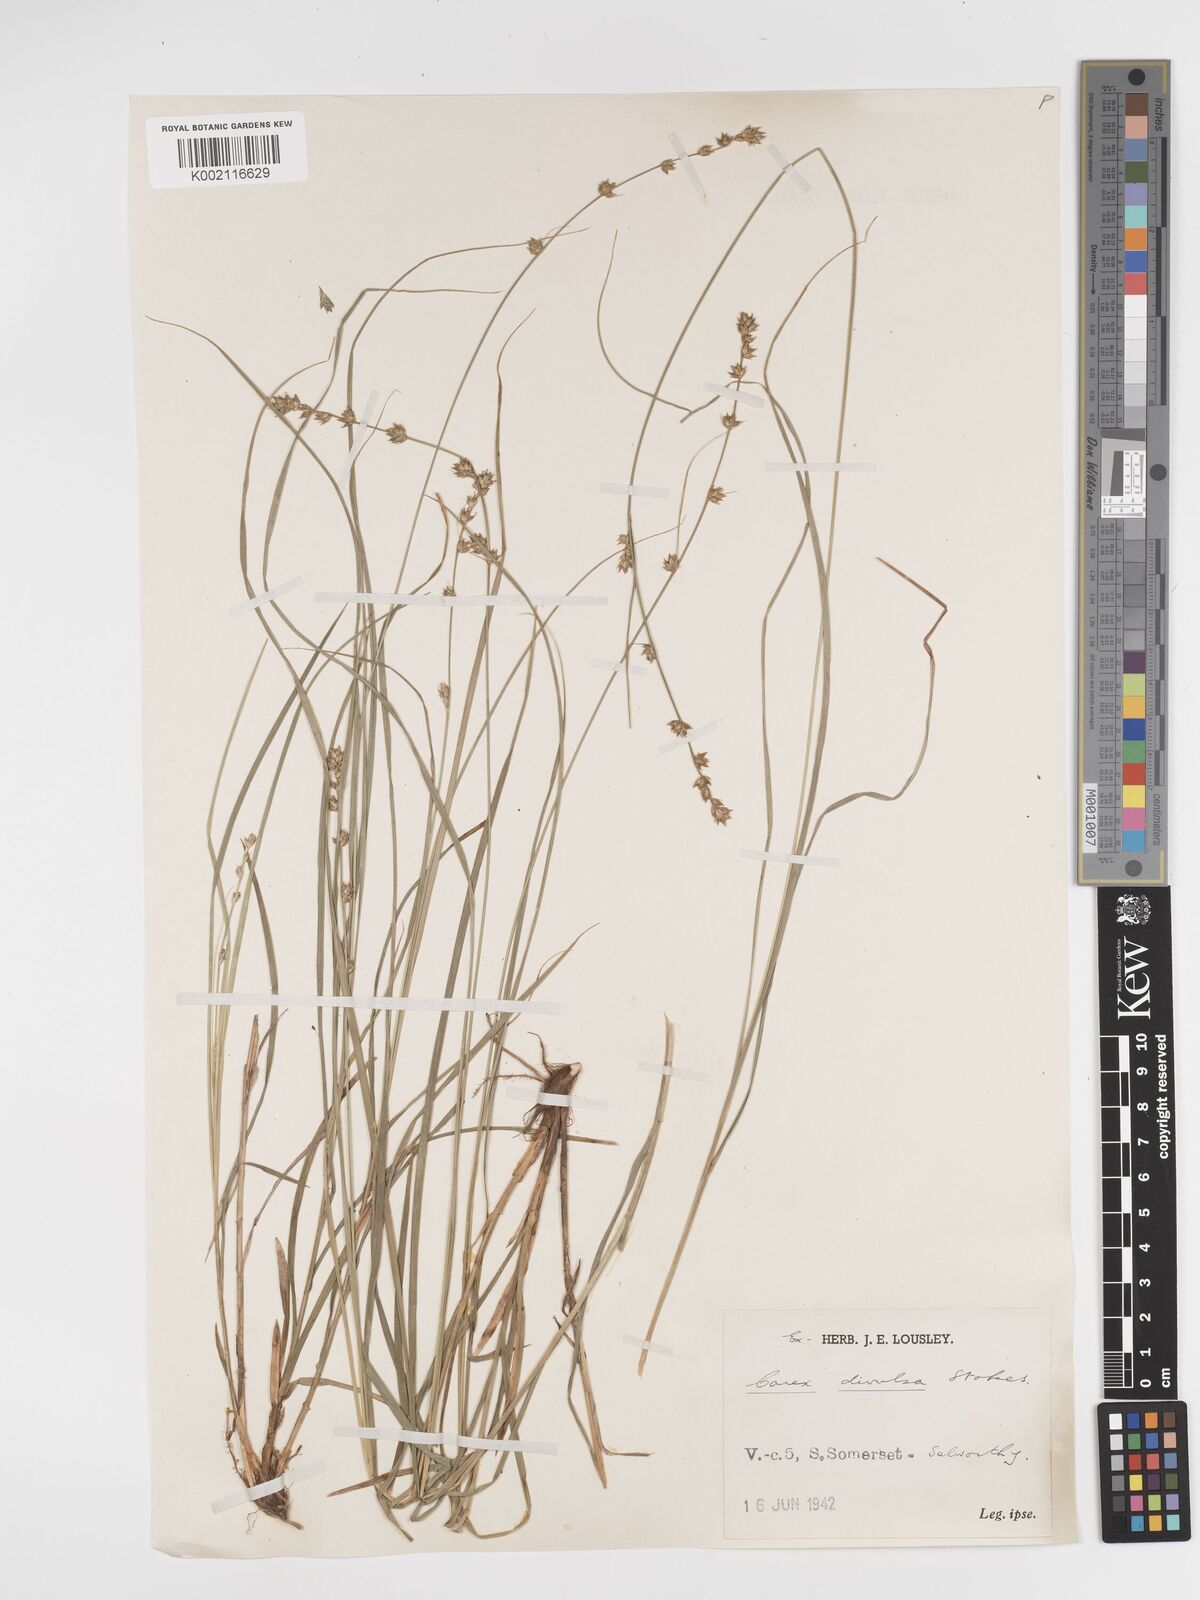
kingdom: Plantae
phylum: Tracheophyta
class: Liliopsida
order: Poales
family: Cyperaceae
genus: Carex
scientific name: Carex divulsa
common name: Grassland sedge
